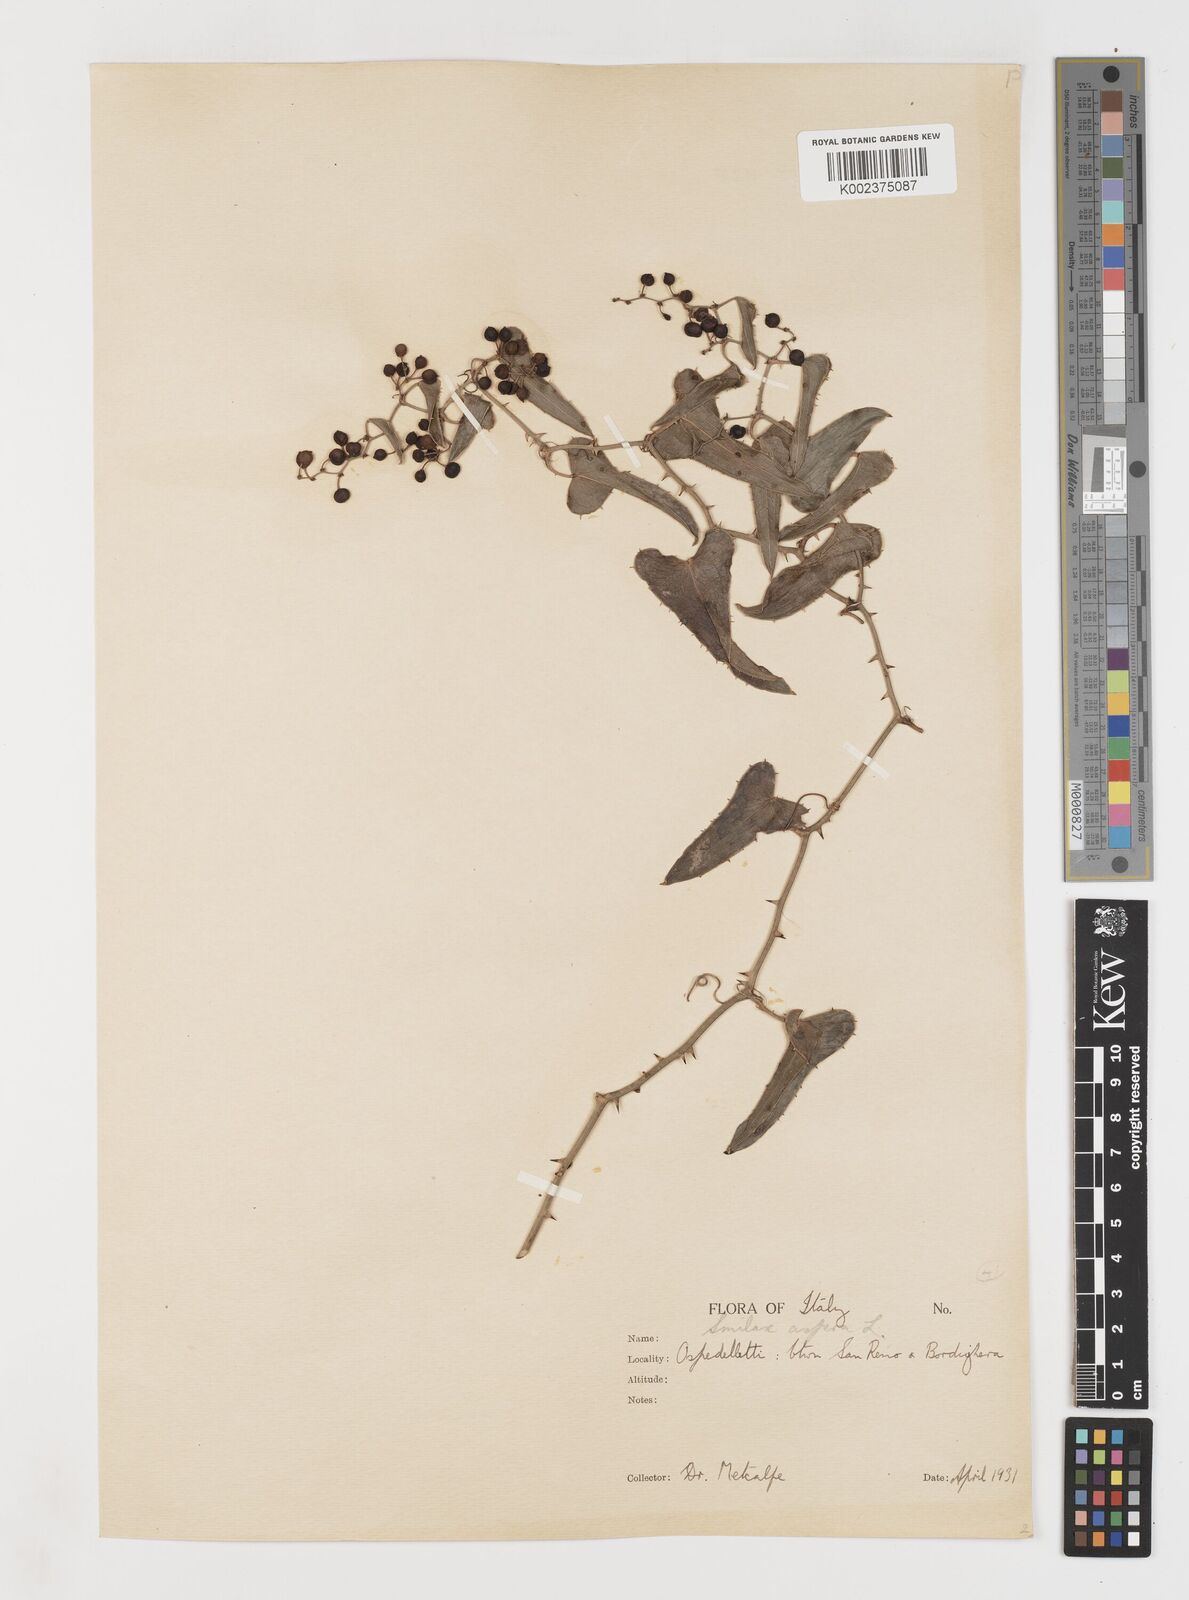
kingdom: Plantae
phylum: Tracheophyta
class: Liliopsida
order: Liliales
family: Smilacaceae
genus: Smilax
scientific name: Smilax aspera
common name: Common smilax
